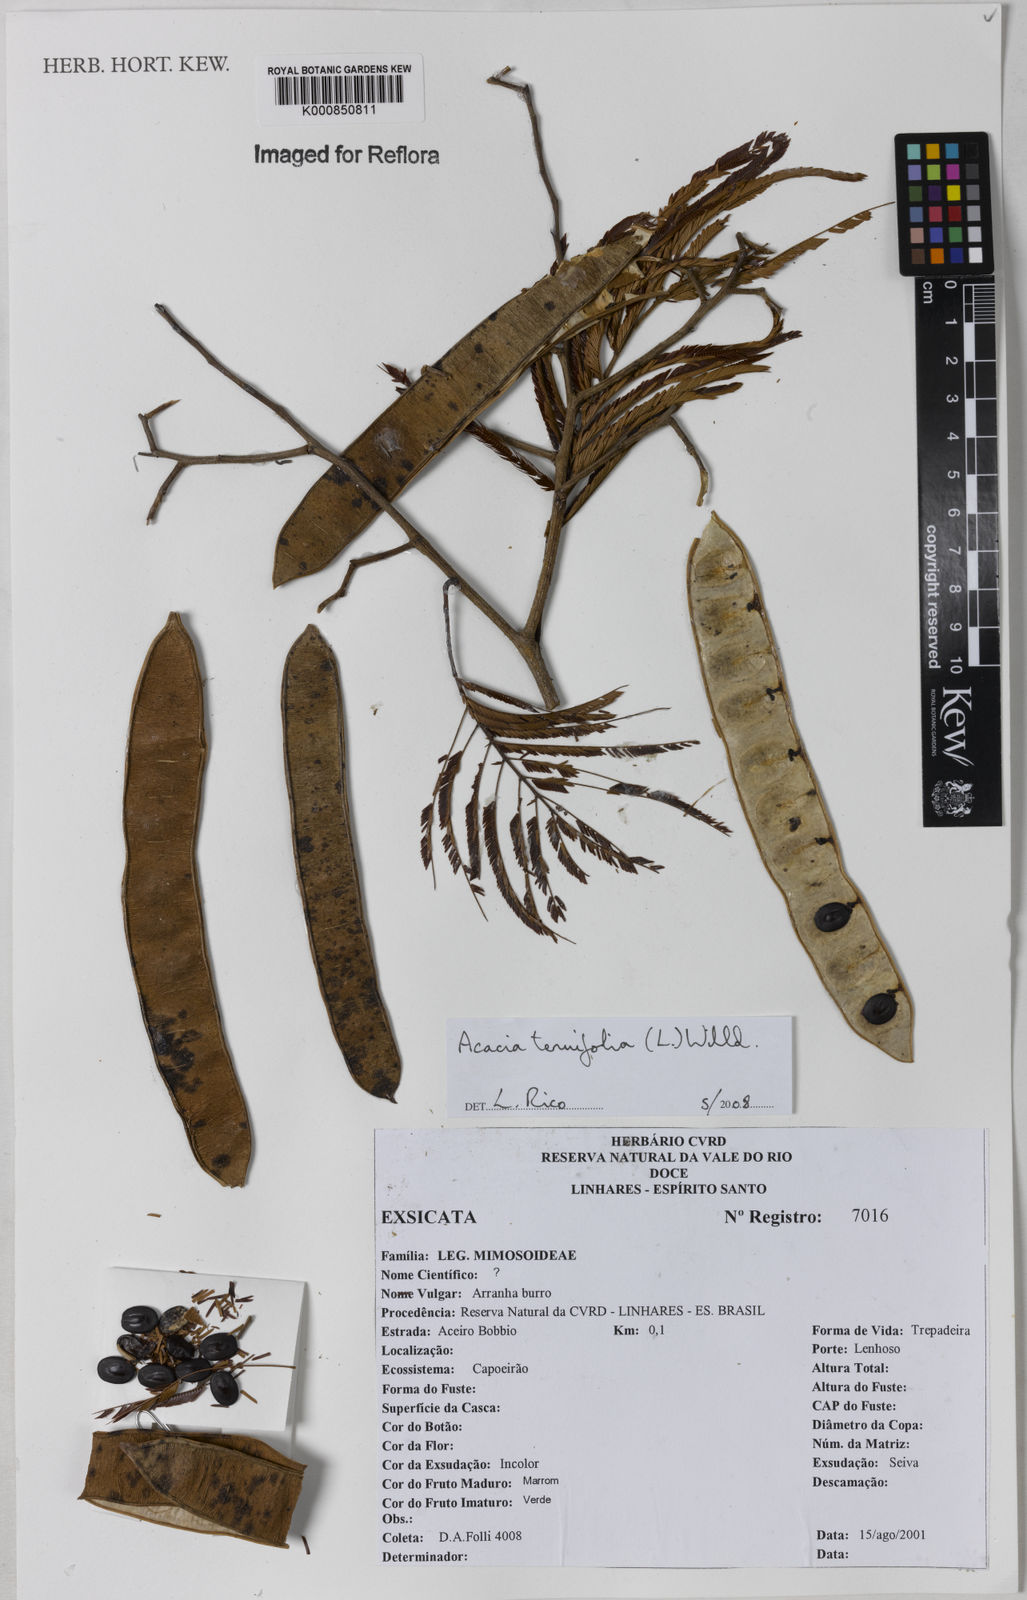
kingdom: Plantae
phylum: Tracheophyta
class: Magnoliopsida
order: Fabales
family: Fabaceae
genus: Senegalia
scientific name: Senegalia tenuifolia
